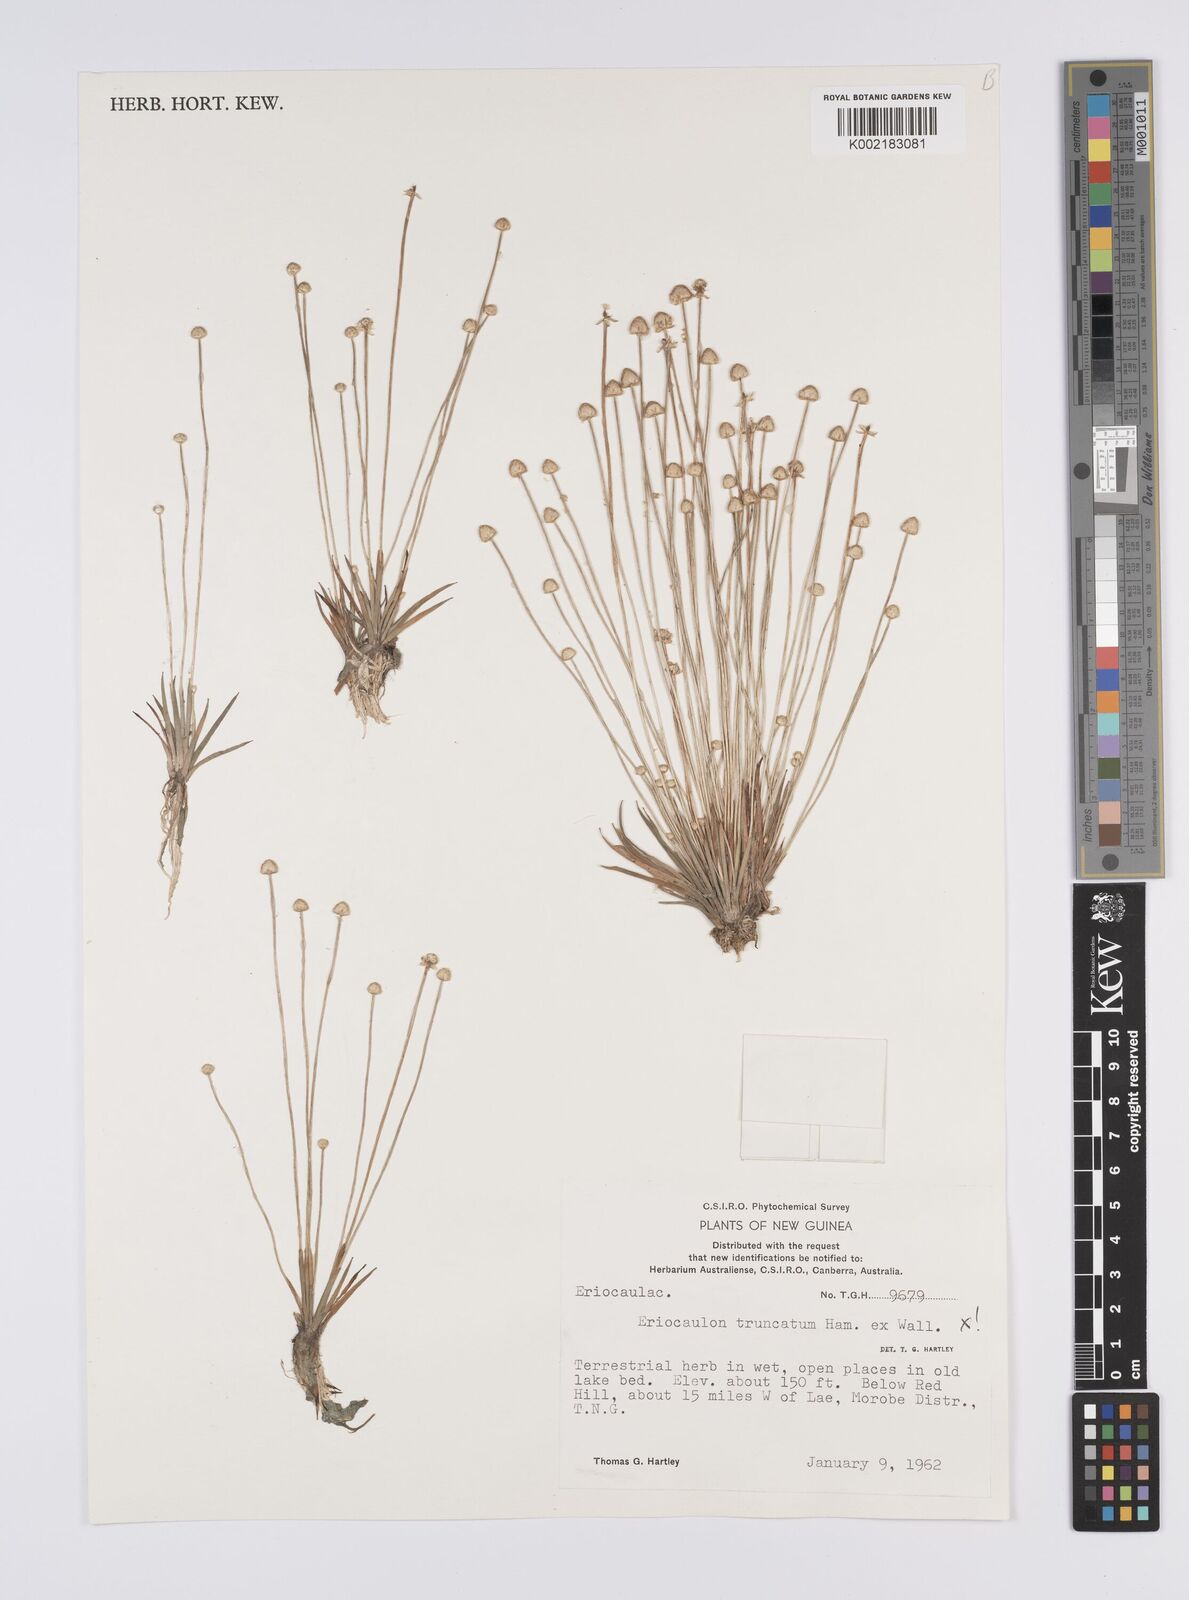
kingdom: Plantae
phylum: Tracheophyta
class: Liliopsida
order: Poales
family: Eriocaulaceae
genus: Eriocaulon
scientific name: Eriocaulon
